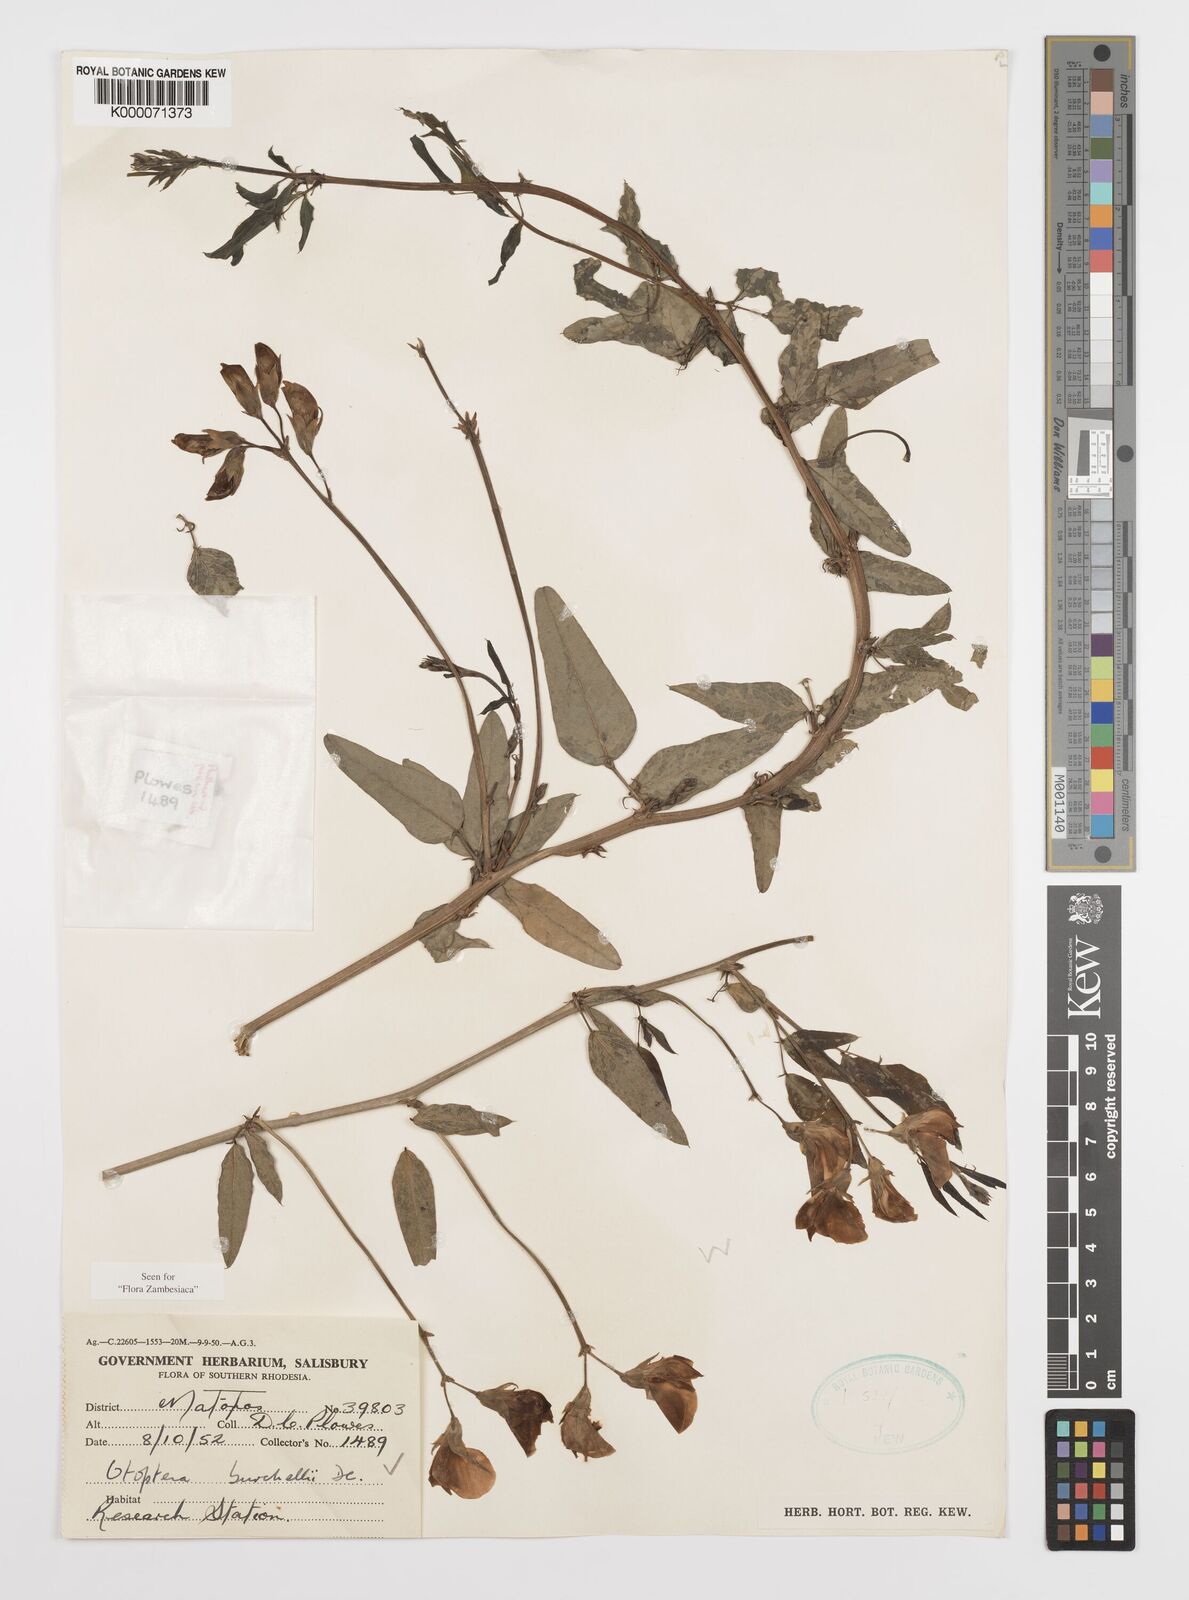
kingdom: Plantae
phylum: Tracheophyta
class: Magnoliopsida
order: Fabales
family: Fabaceae
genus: Otoptera
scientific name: Otoptera burchellii
